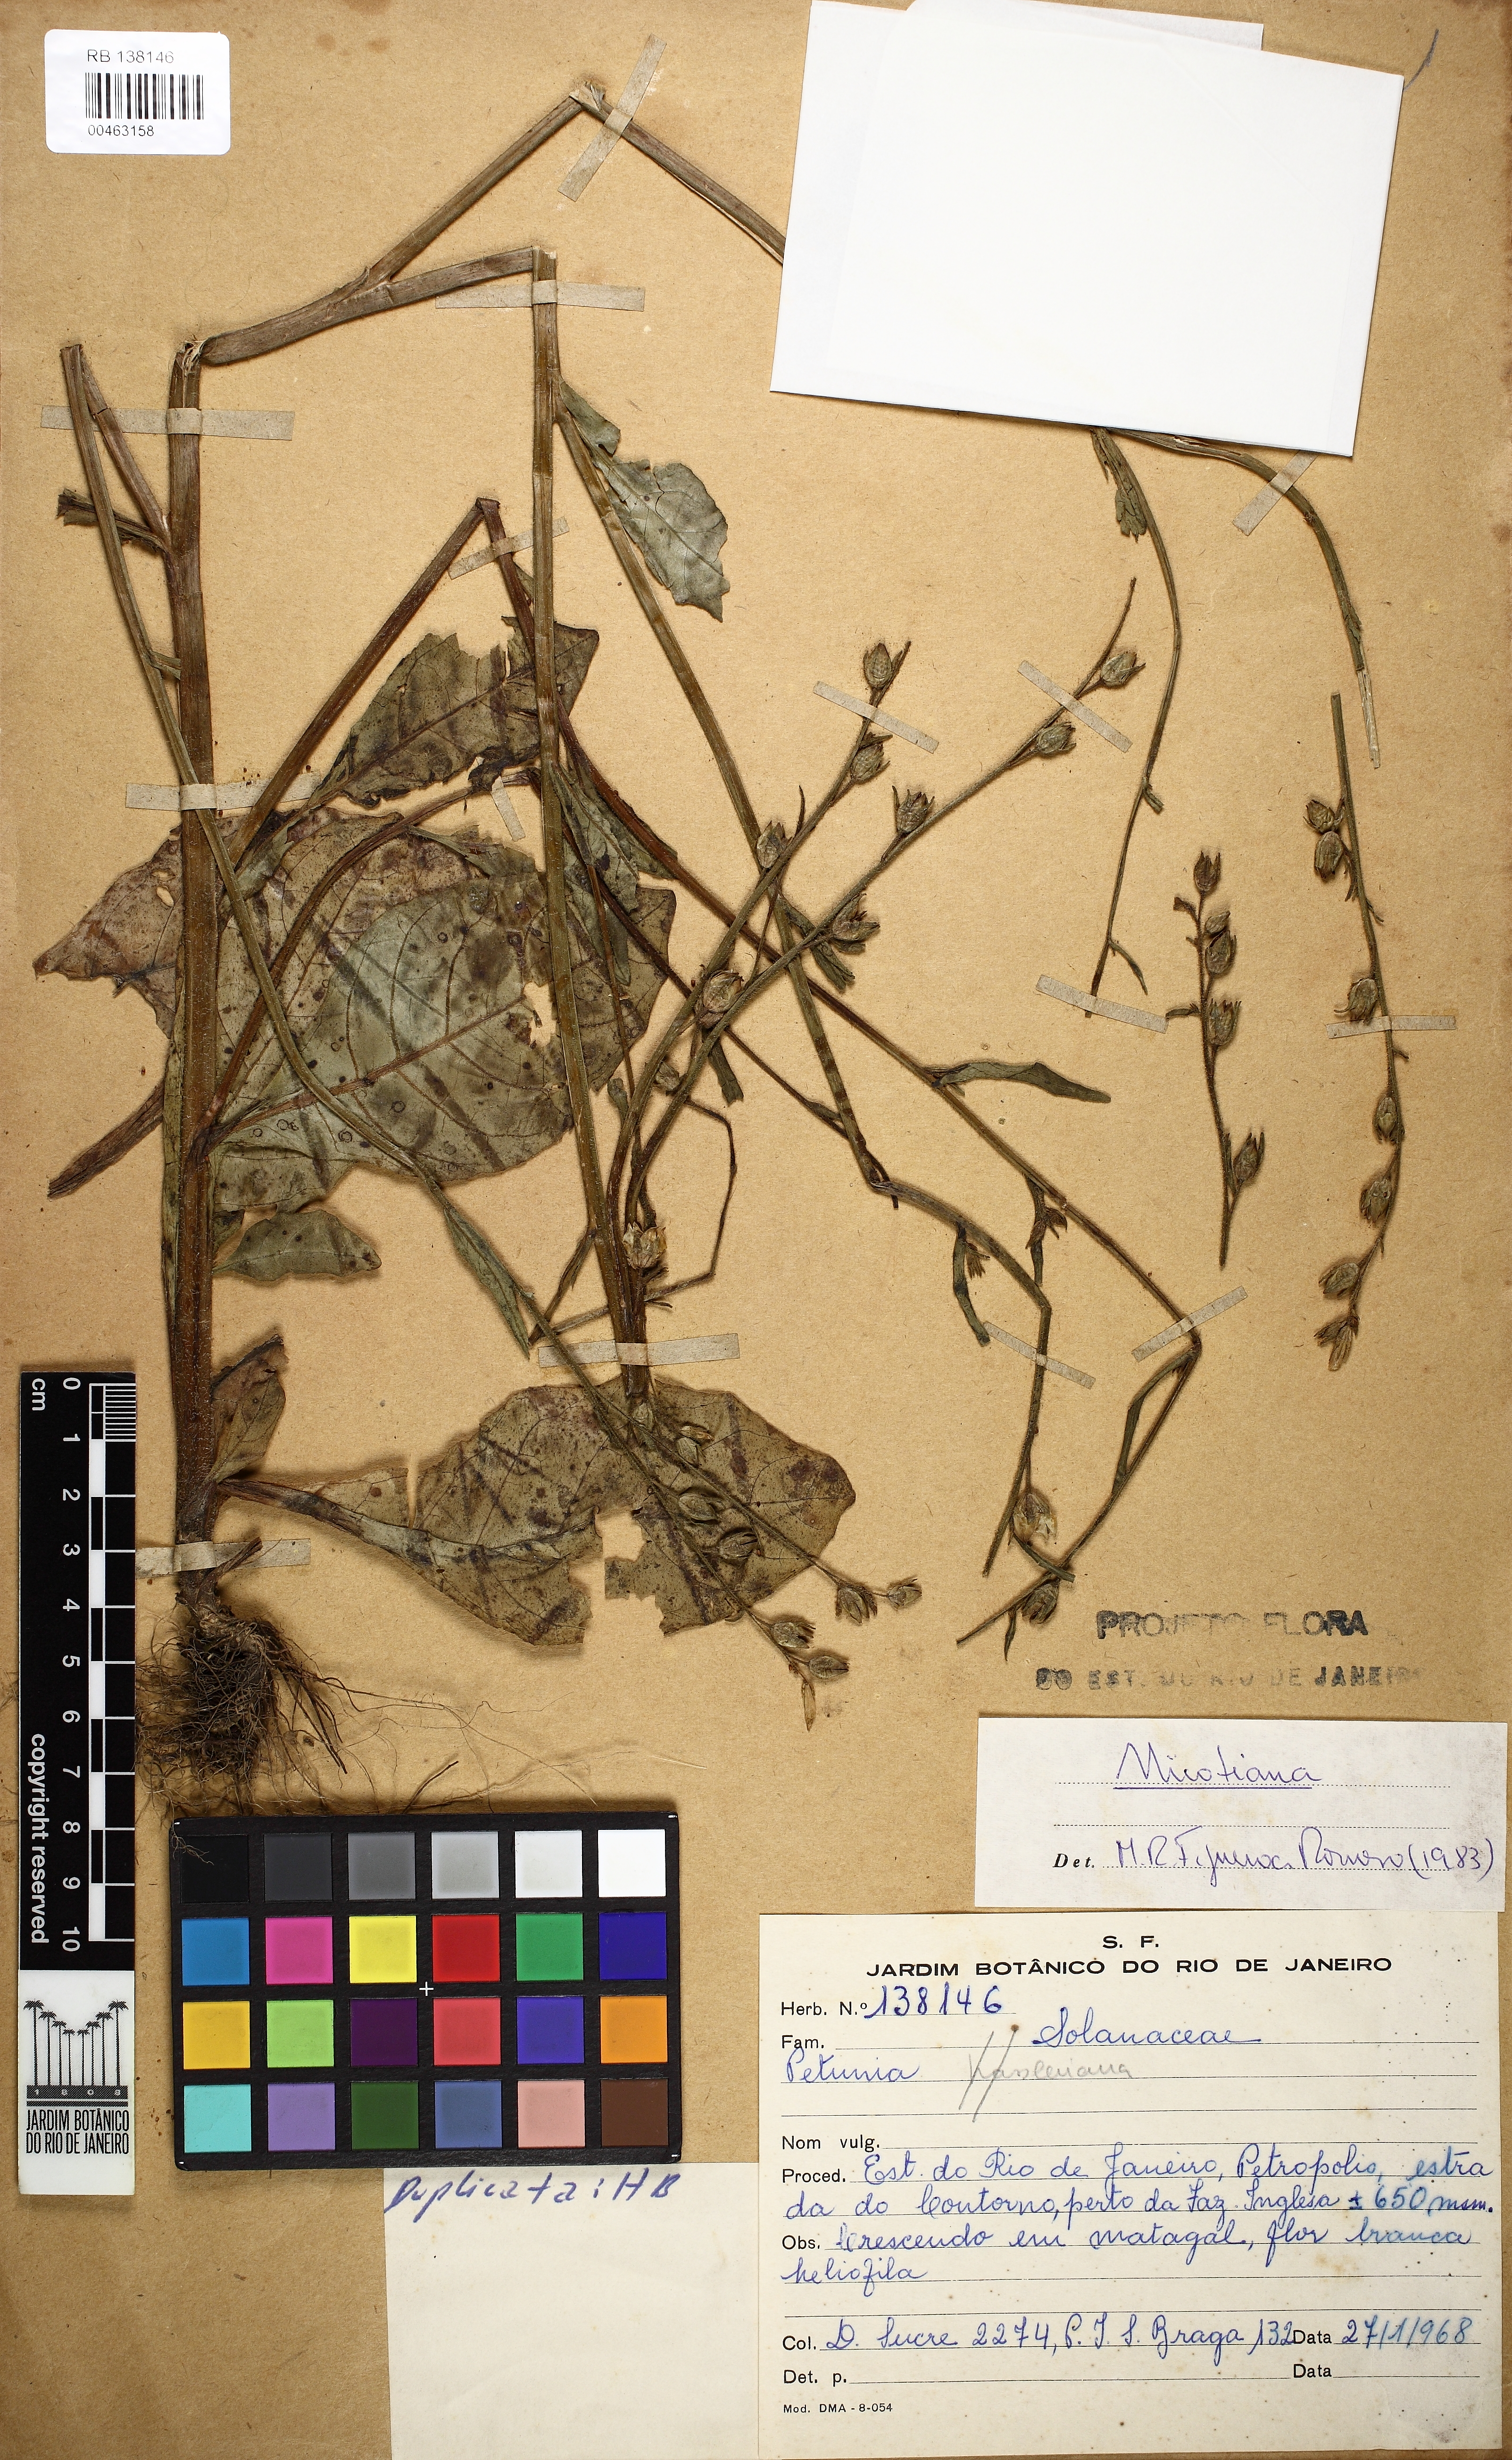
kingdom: Plantae
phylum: Tracheophyta
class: Magnoliopsida
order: Solanales
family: Solanaceae
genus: Nicotiana
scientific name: Nicotiana
